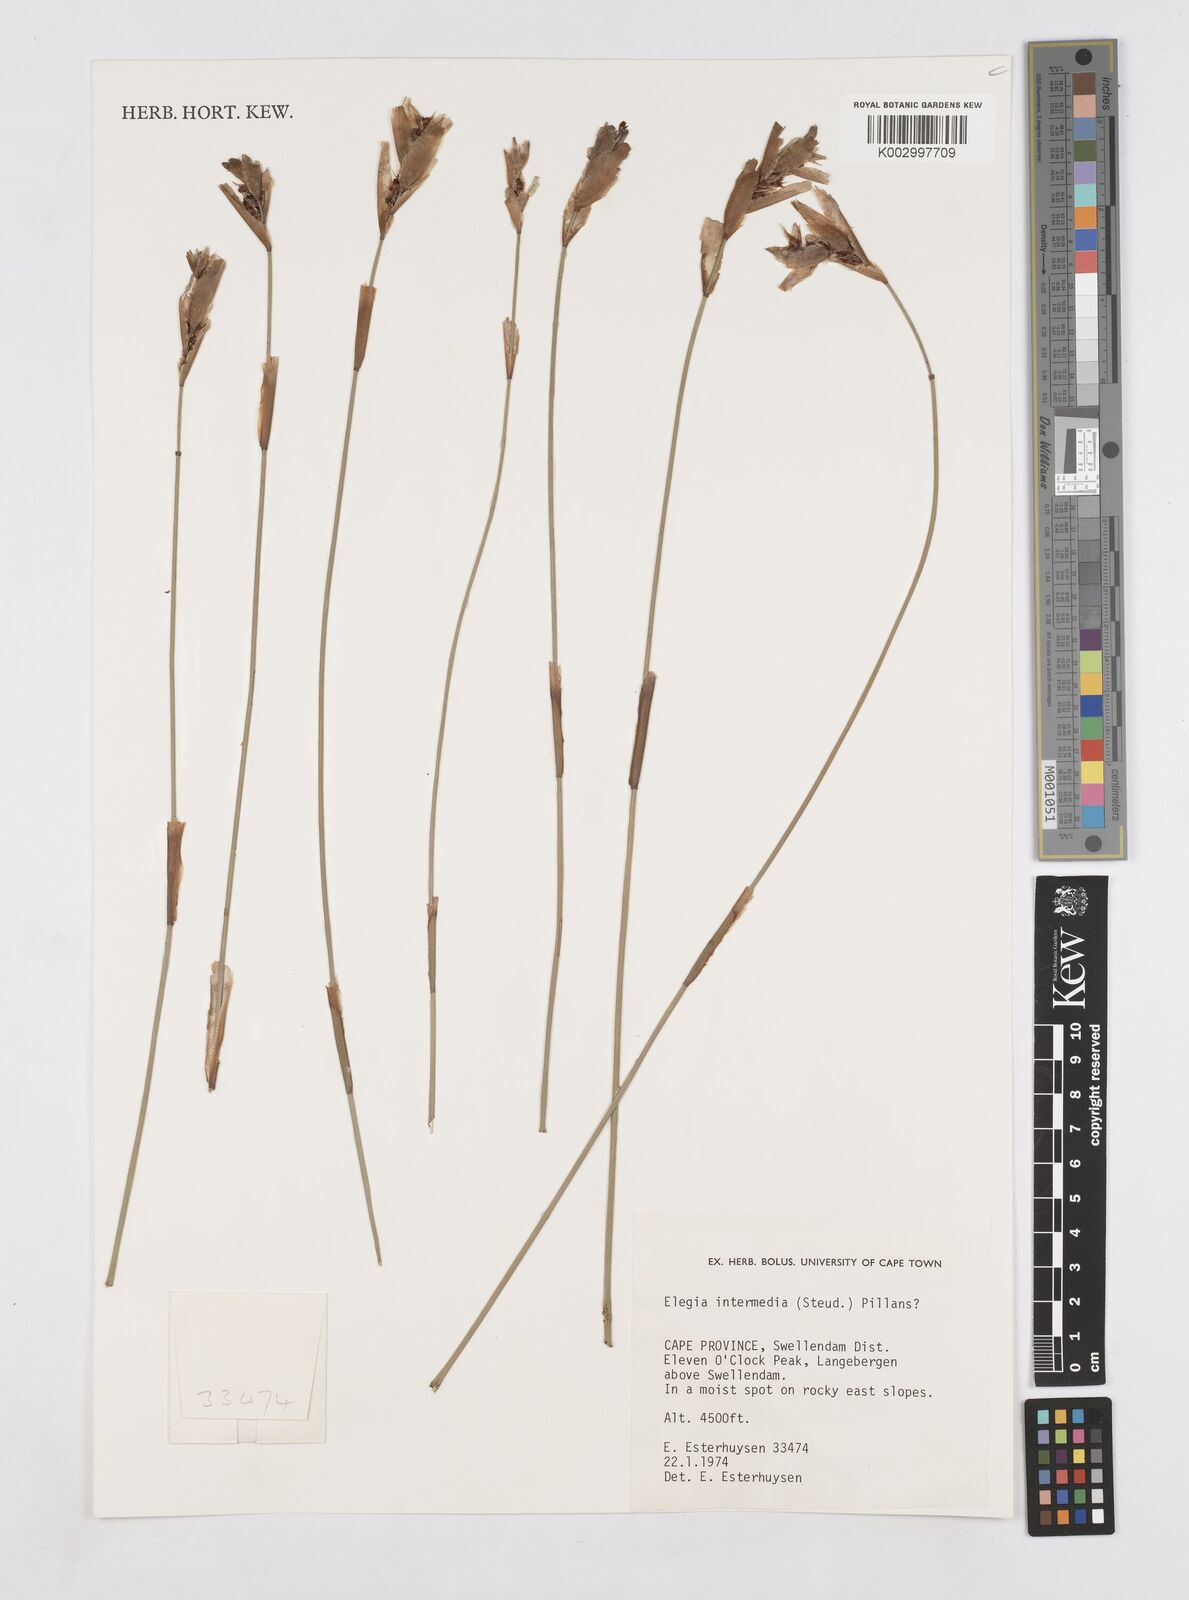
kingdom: Plantae
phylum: Tracheophyta
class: Liliopsida
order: Poales
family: Restionaceae
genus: Elegia
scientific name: Elegia intermedia
